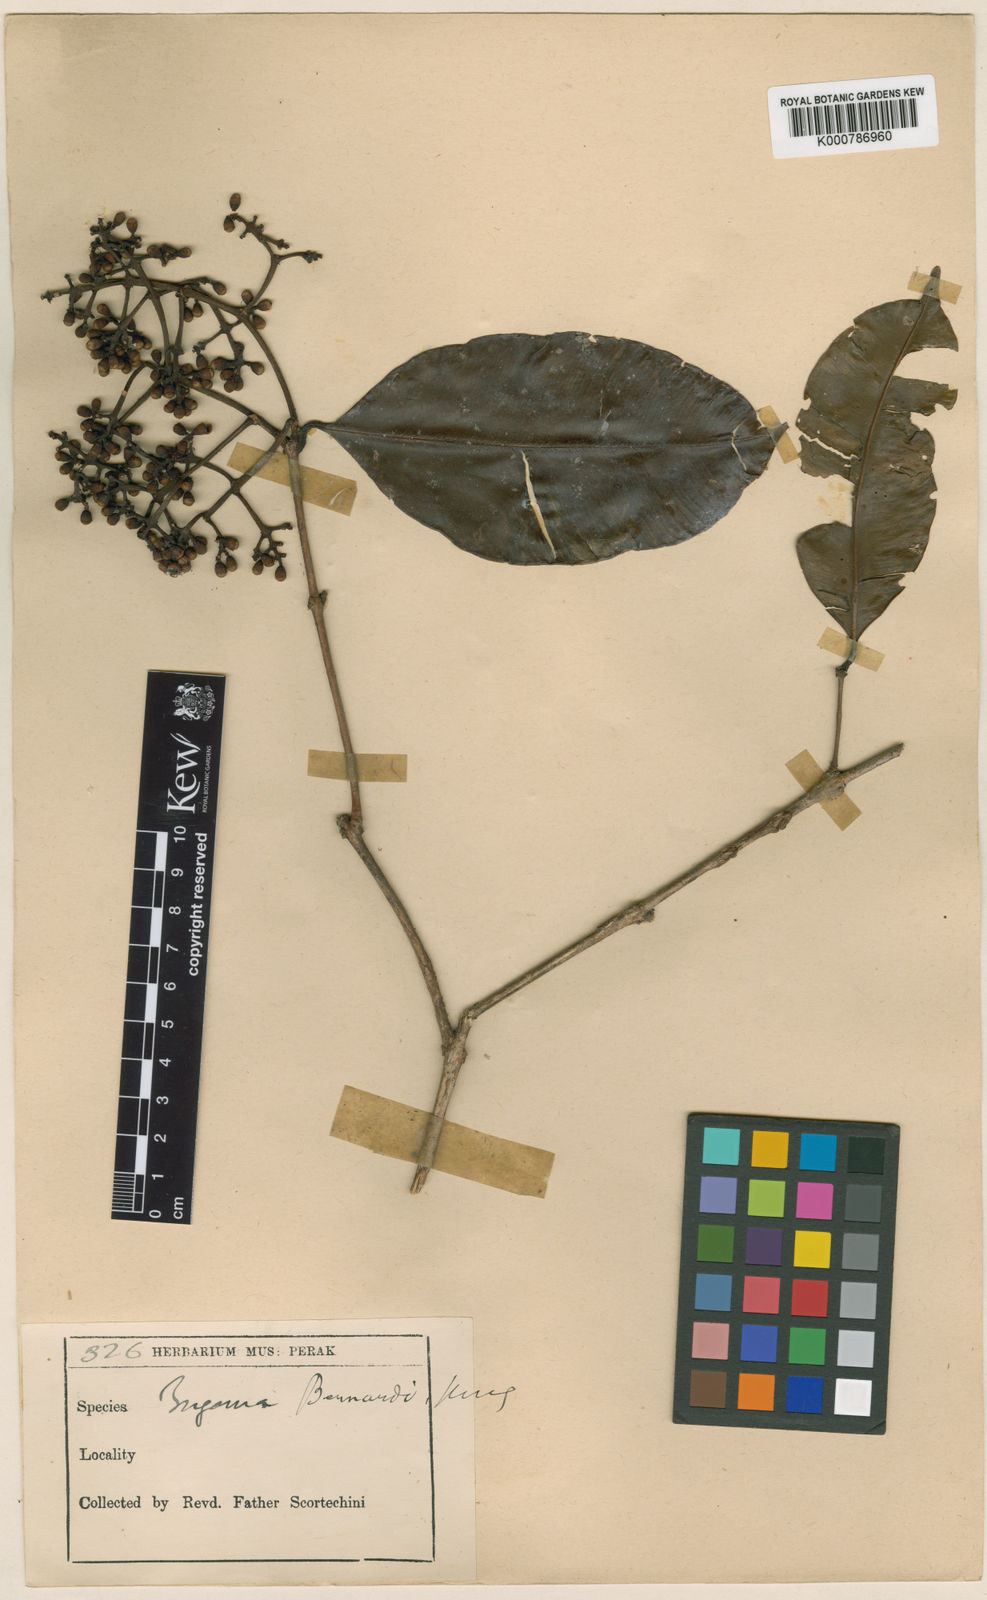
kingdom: Plantae
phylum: Tracheophyta
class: Magnoliopsida
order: Myrtales
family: Myrtaceae
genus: Syzygium
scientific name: Syzygium bernardoi
